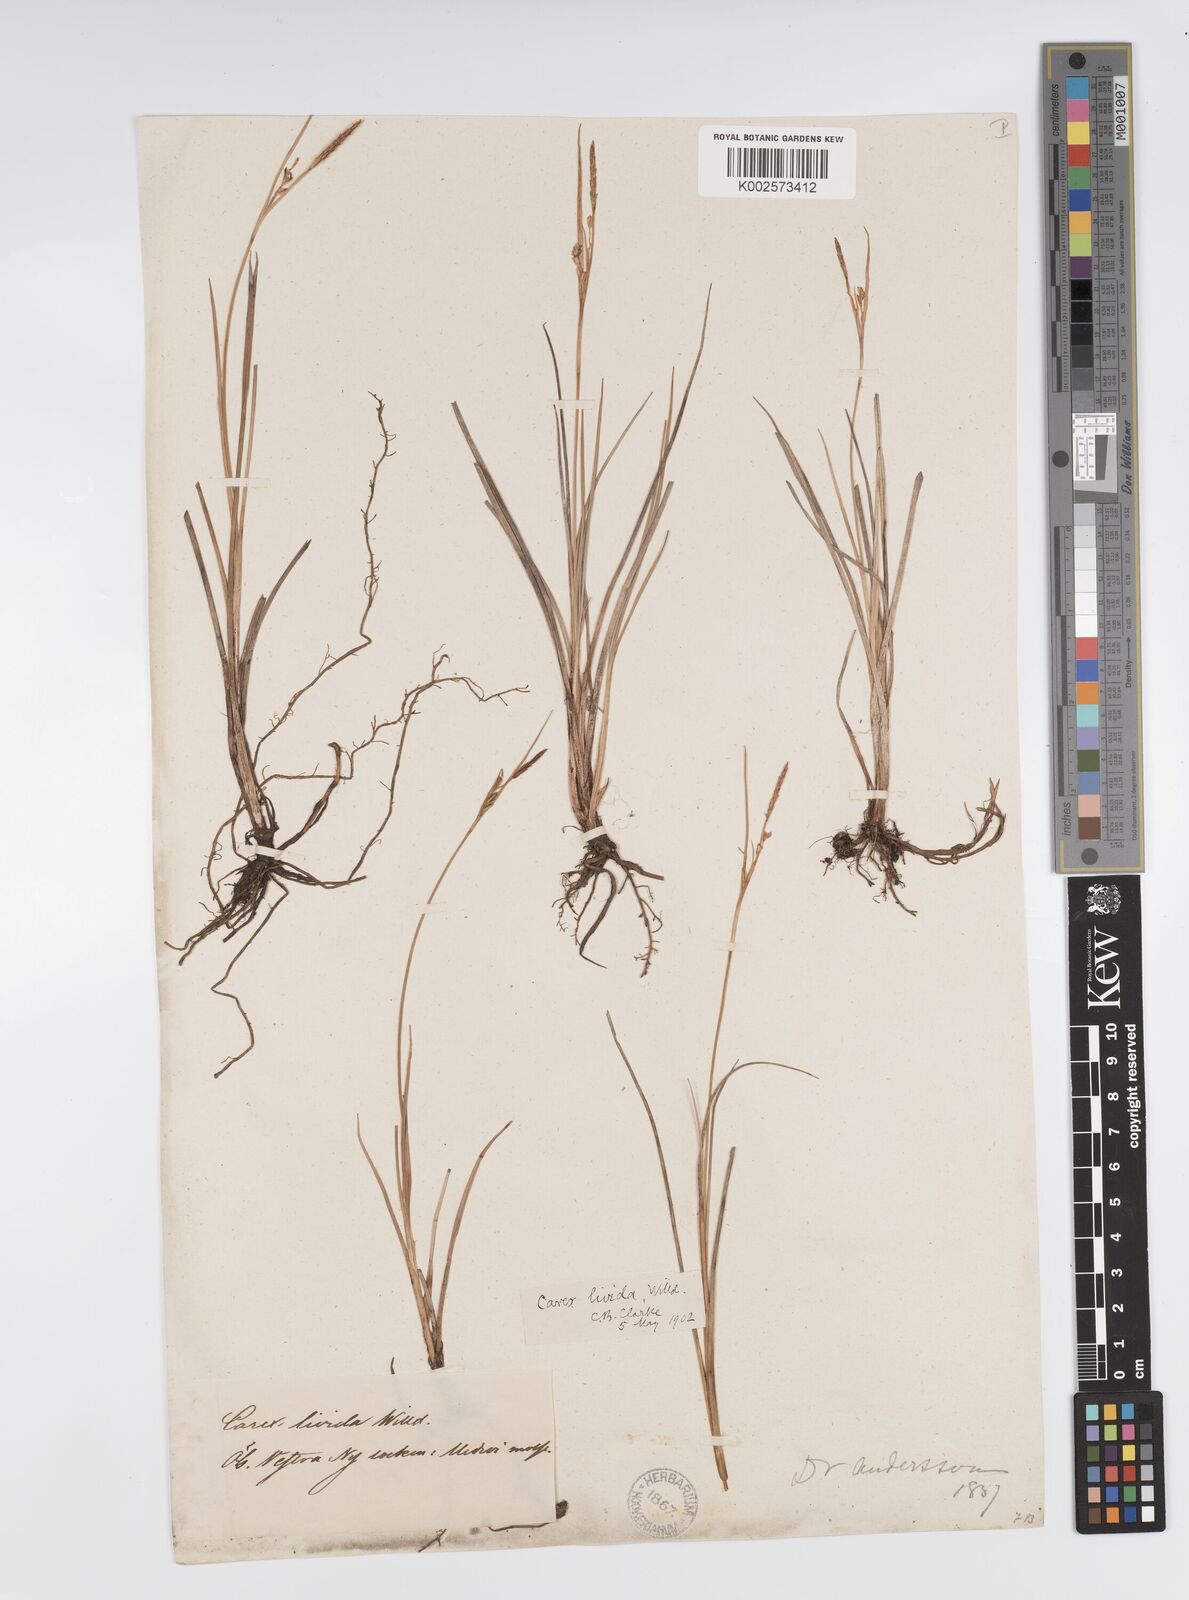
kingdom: Plantae
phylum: Tracheophyta
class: Liliopsida
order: Poales
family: Cyperaceae
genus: Carex
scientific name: Carex livida
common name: Livid sedge
